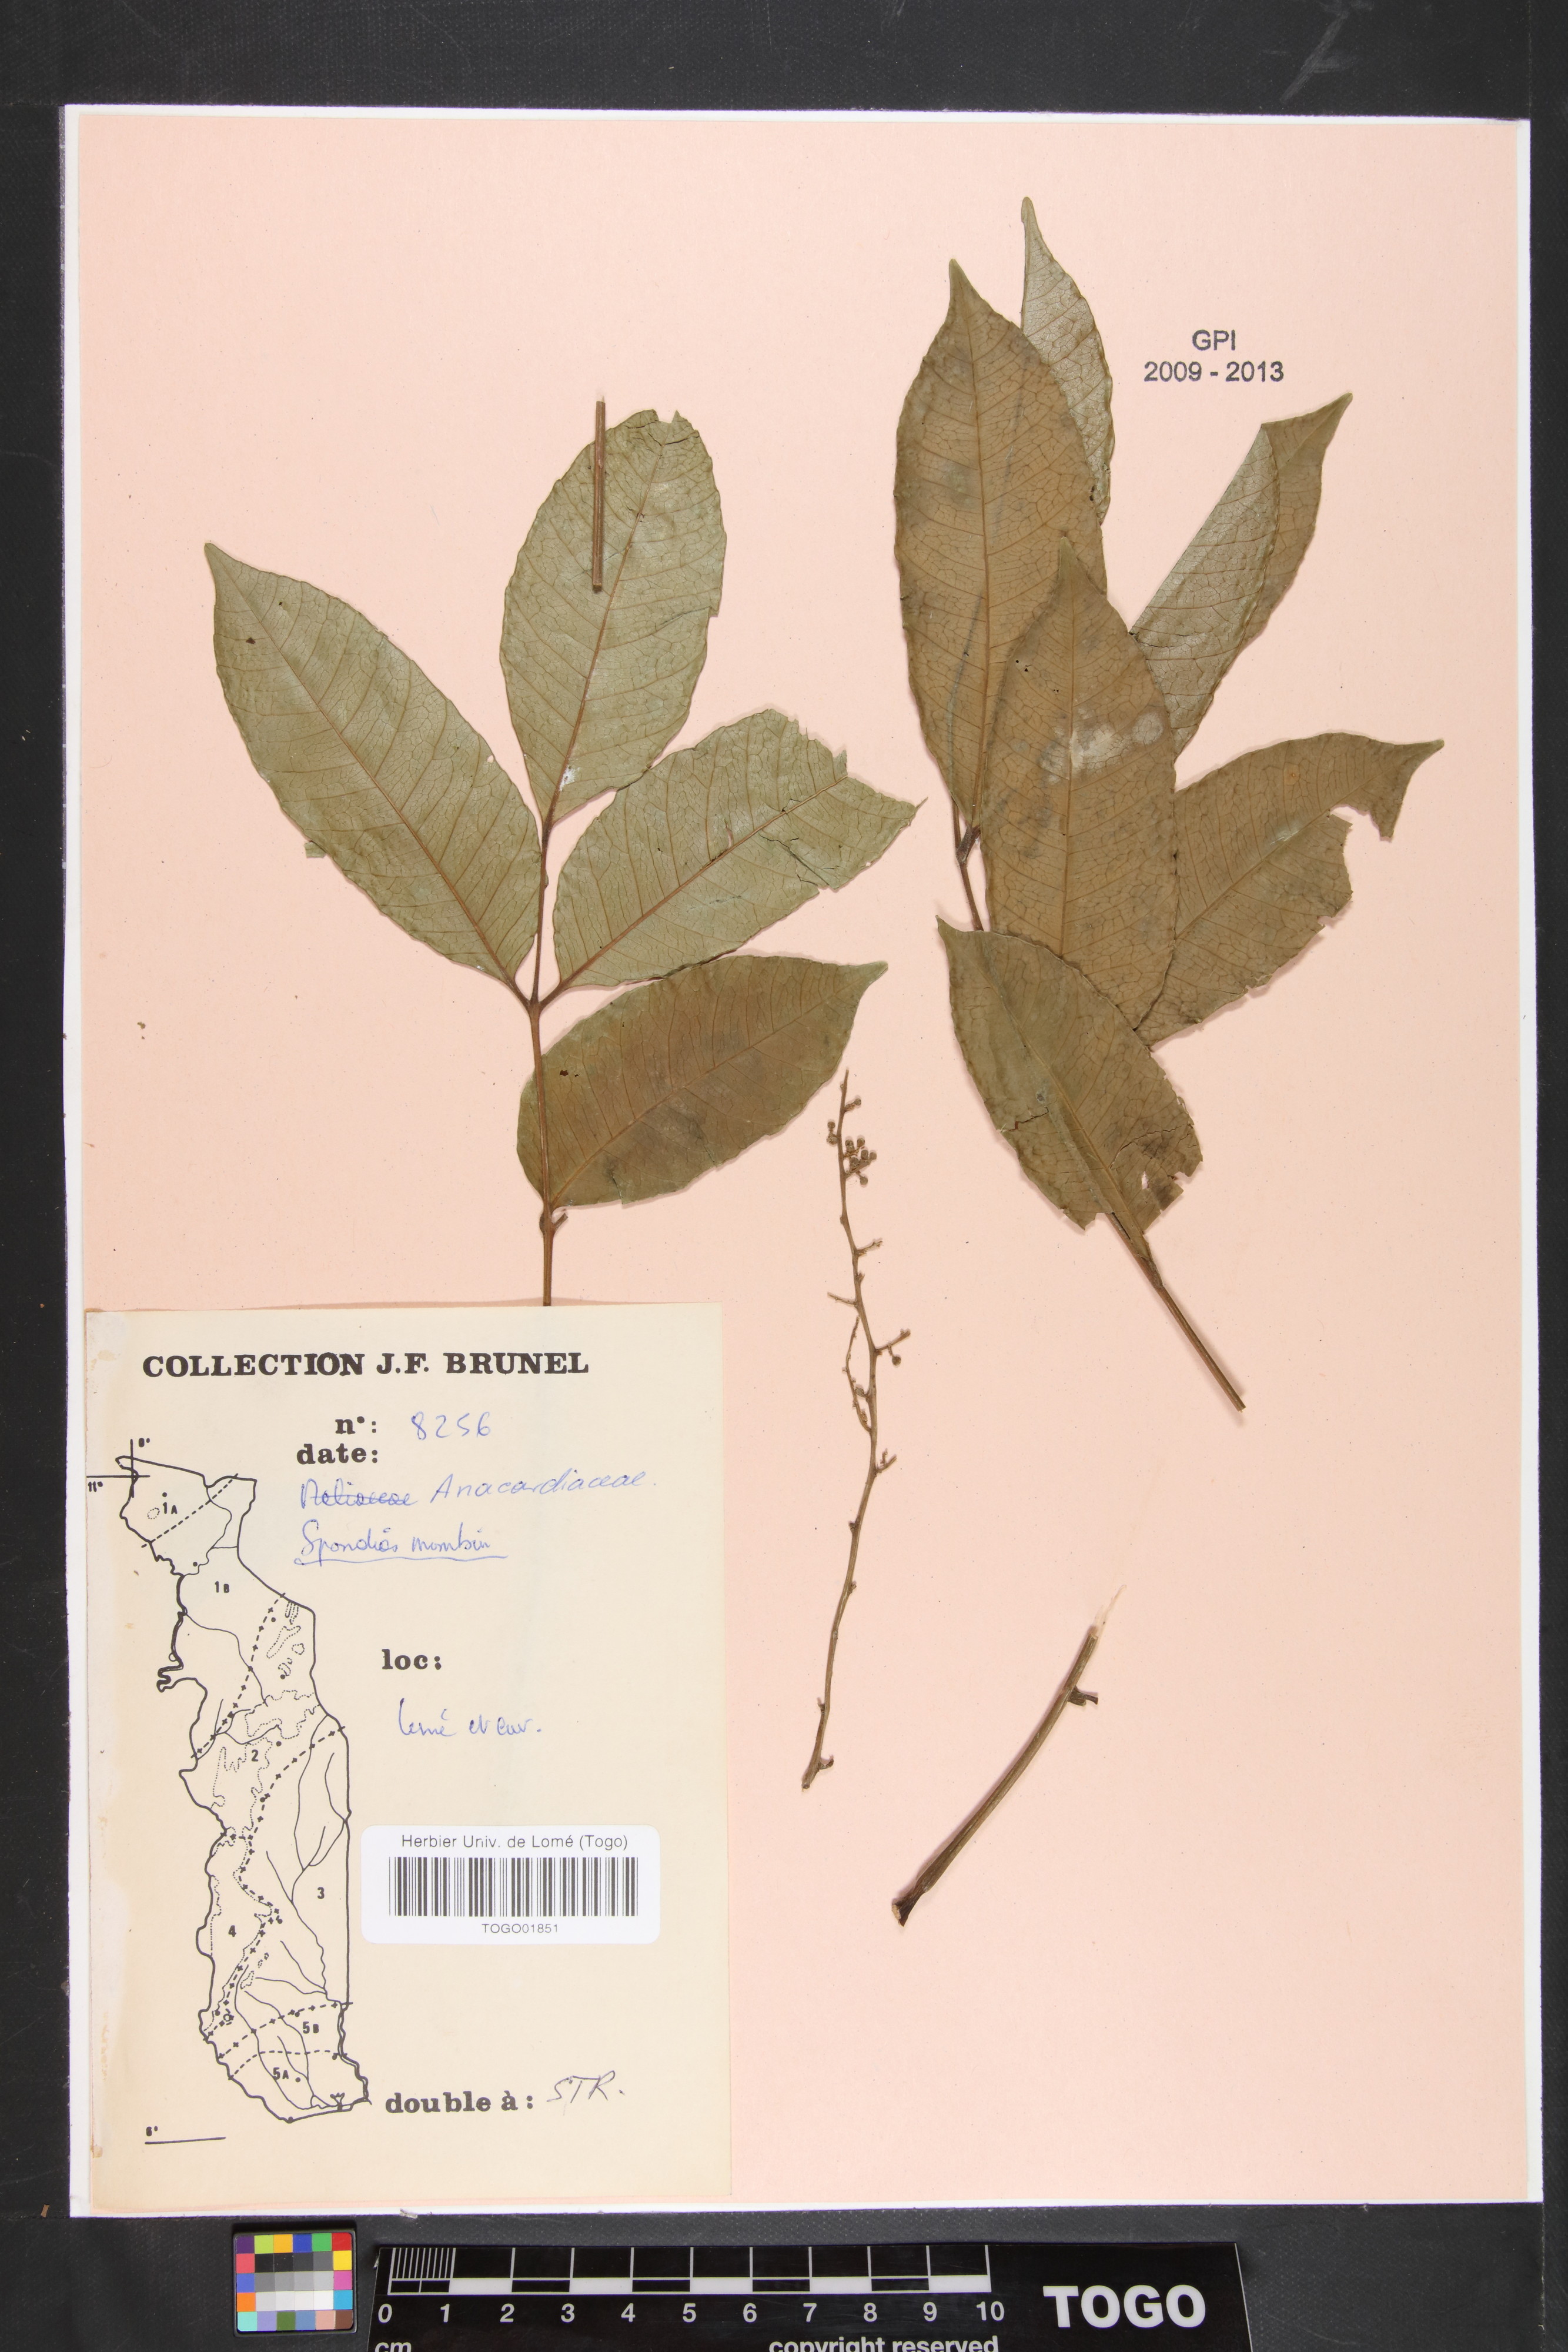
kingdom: Plantae
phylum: Tracheophyta
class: Magnoliopsida
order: Sapindales
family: Anacardiaceae
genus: Spondias
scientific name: Spondias mombin
